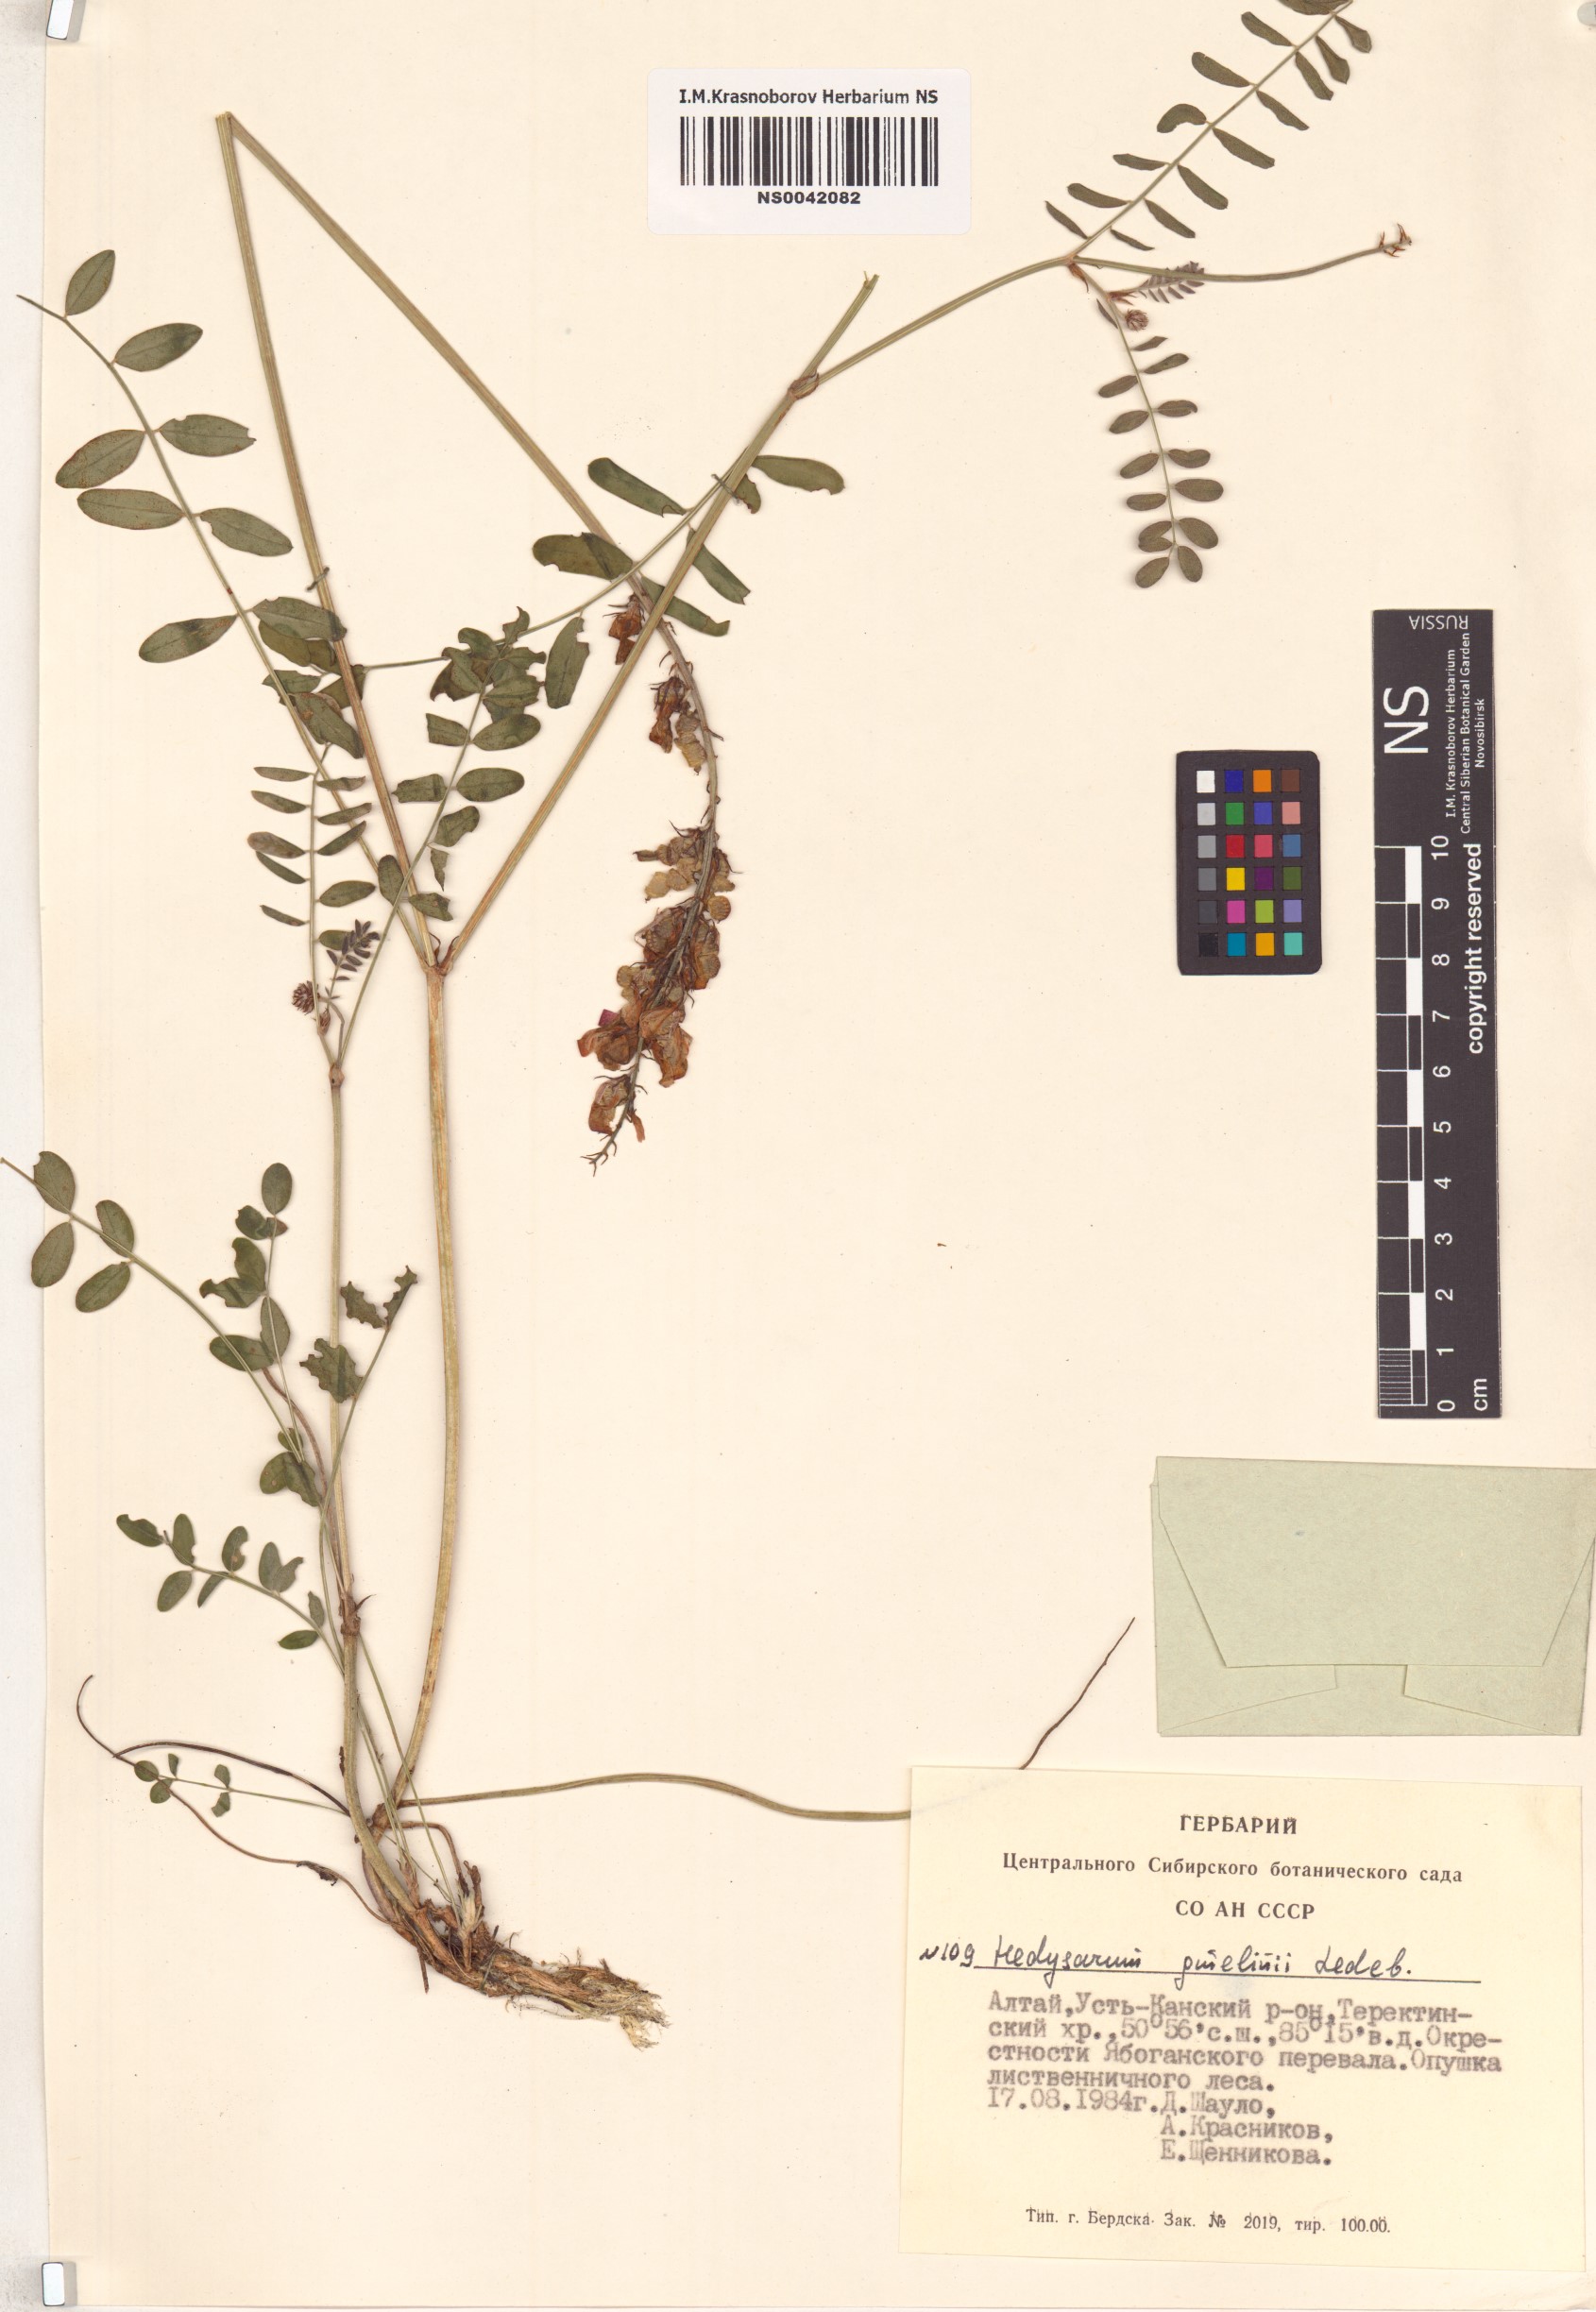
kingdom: Plantae
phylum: Tracheophyta
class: Magnoliopsida
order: Fabales
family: Fabaceae
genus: Hedysarum
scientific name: Hedysarum gmelinii
